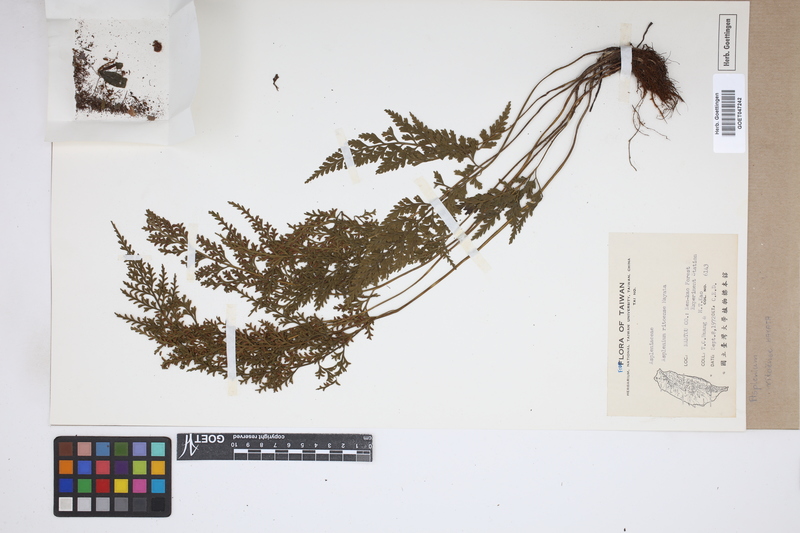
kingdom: Plantae
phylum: Tracheophyta
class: Polypodiopsida
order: Polypodiales
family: Aspleniaceae
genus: Asplenium
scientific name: Asplenium ritoense
